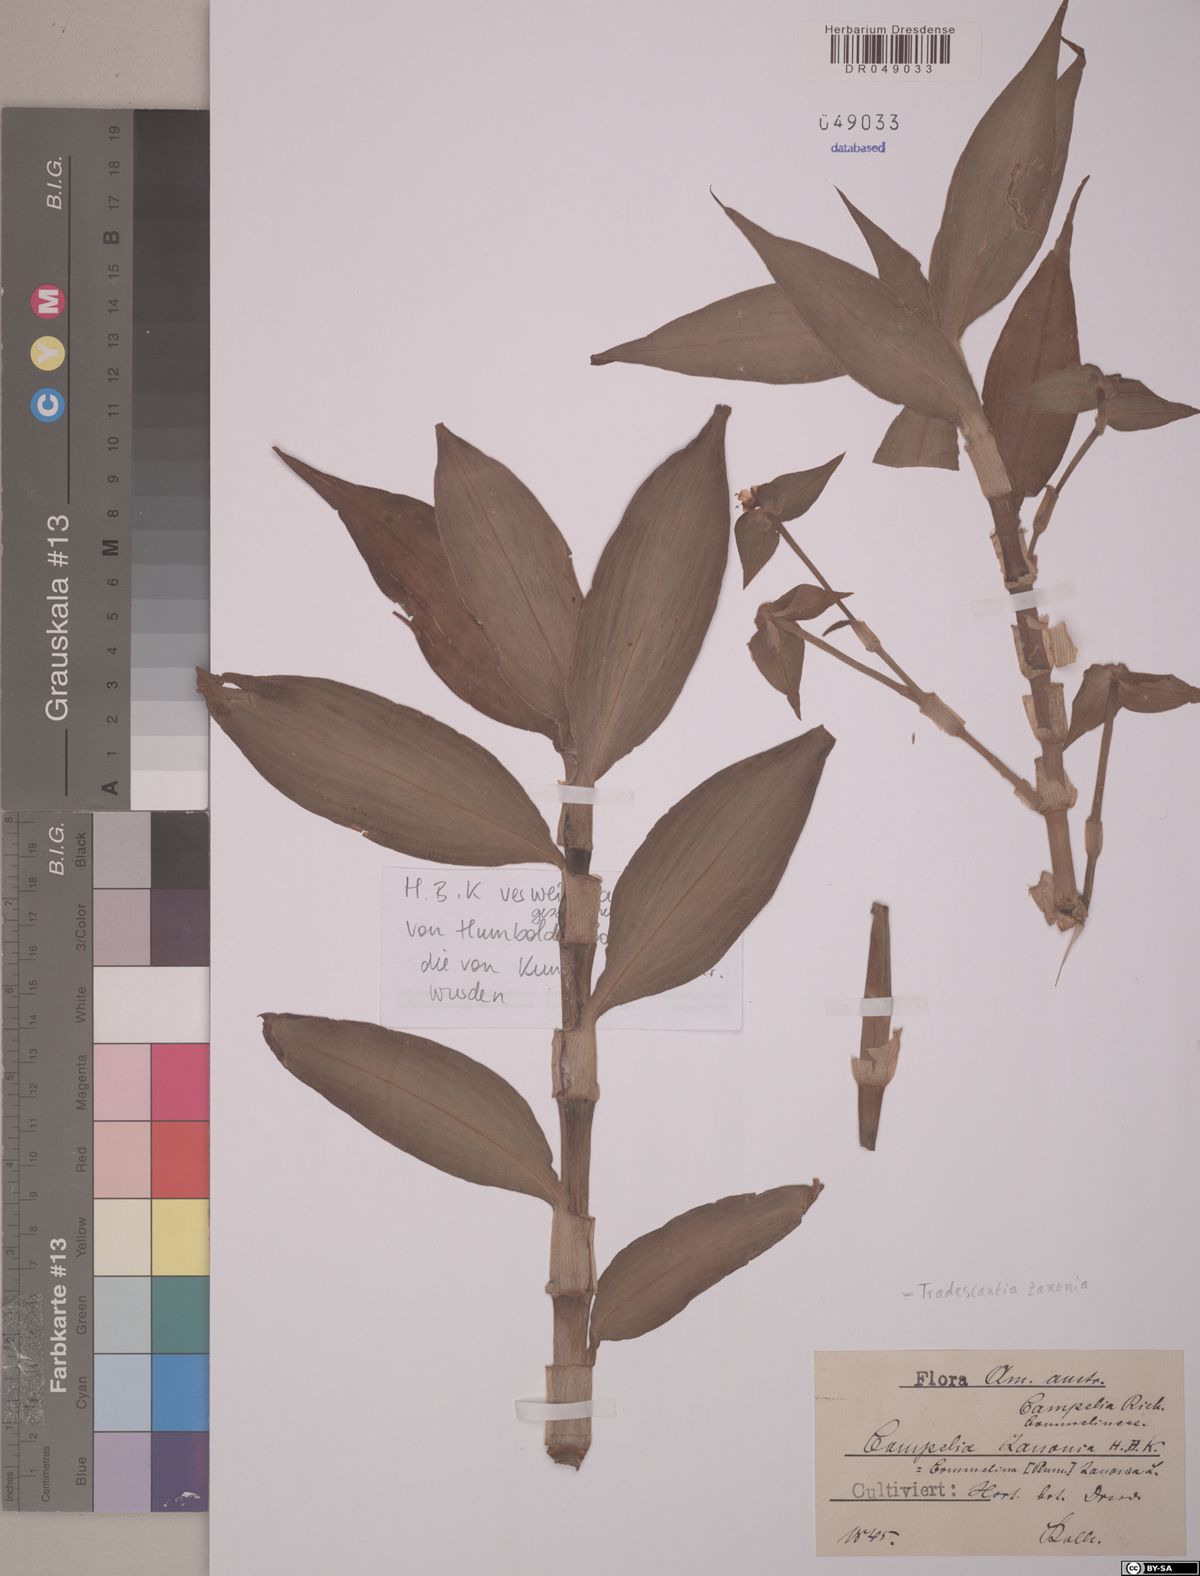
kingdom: Plantae
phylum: Tracheophyta
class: Liliopsida
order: Commelinales
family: Commelinaceae
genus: Tradescantia
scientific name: Tradescantia zanonia
